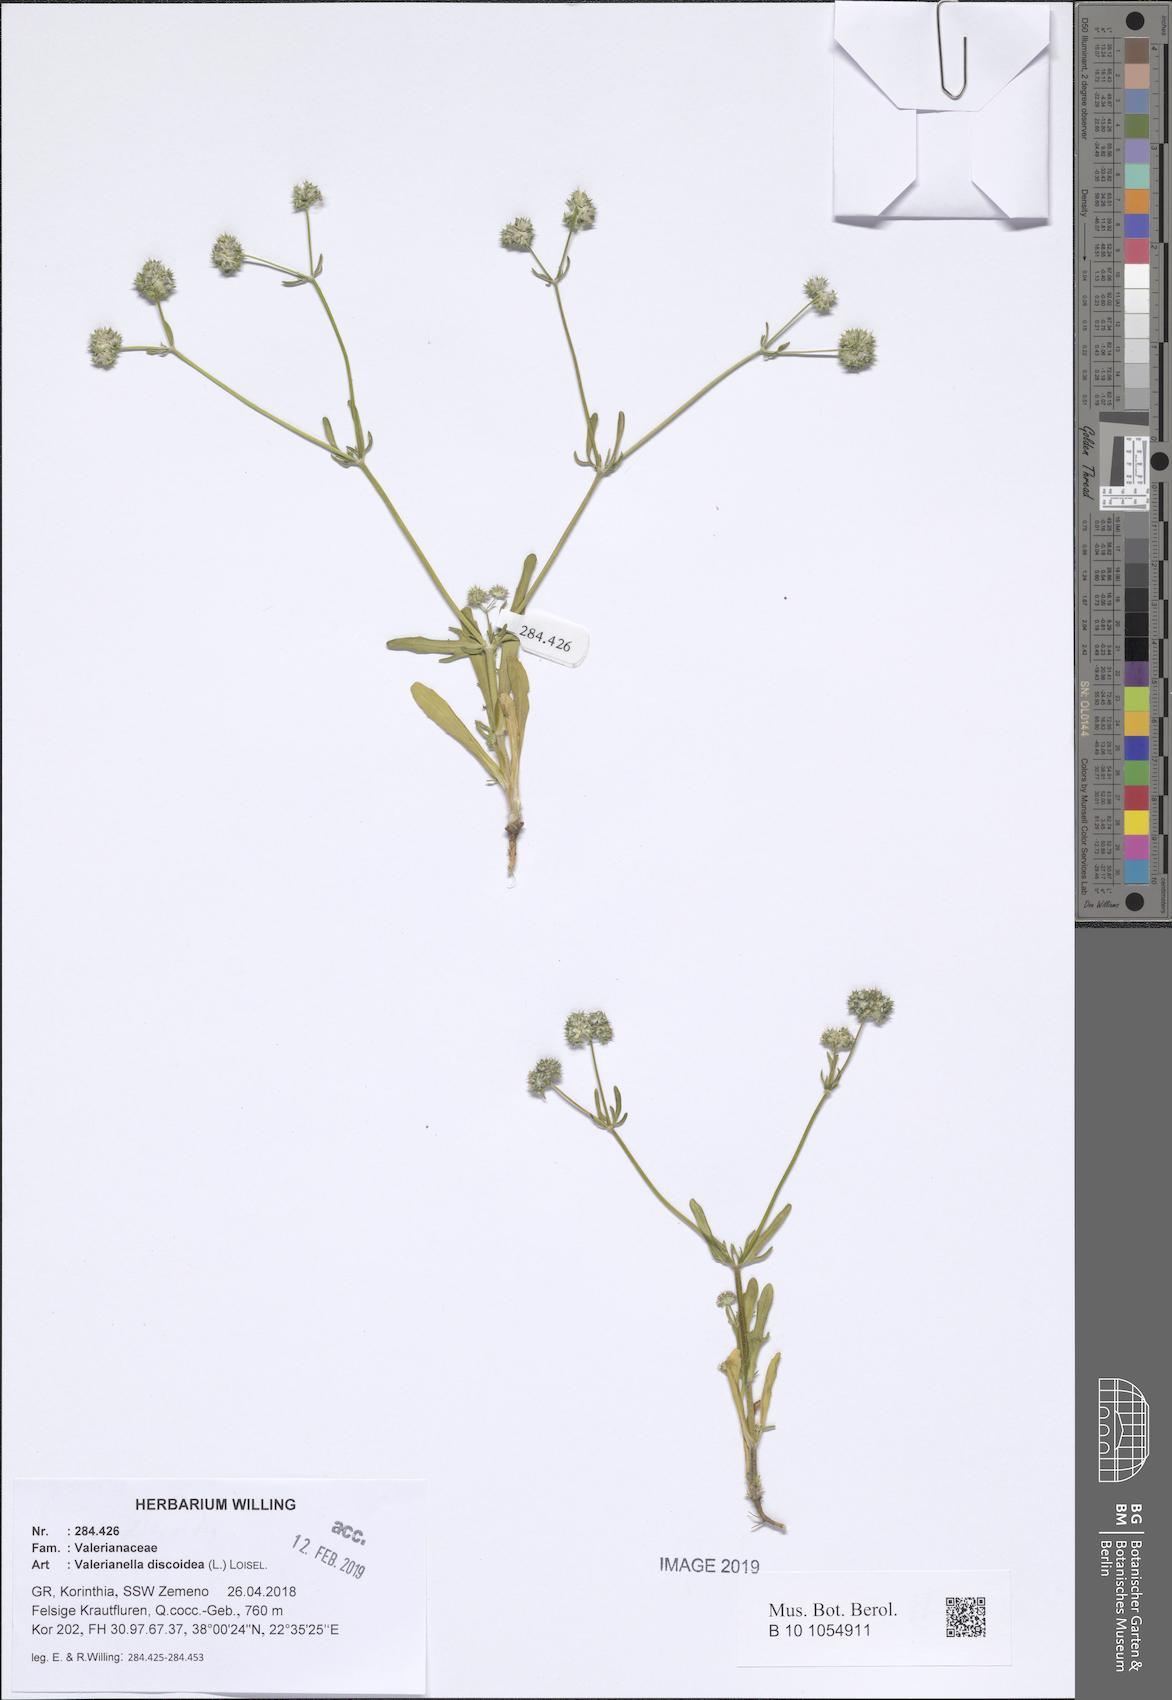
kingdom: Plantae
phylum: Tracheophyta
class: Magnoliopsida
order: Dipsacales
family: Caprifoliaceae
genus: Valerianella
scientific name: Valerianella discoidea
